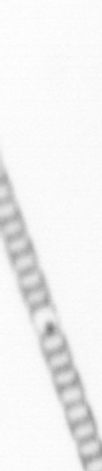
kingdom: Chromista
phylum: Ochrophyta
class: Bacillariophyceae
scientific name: Bacillariophyceae
